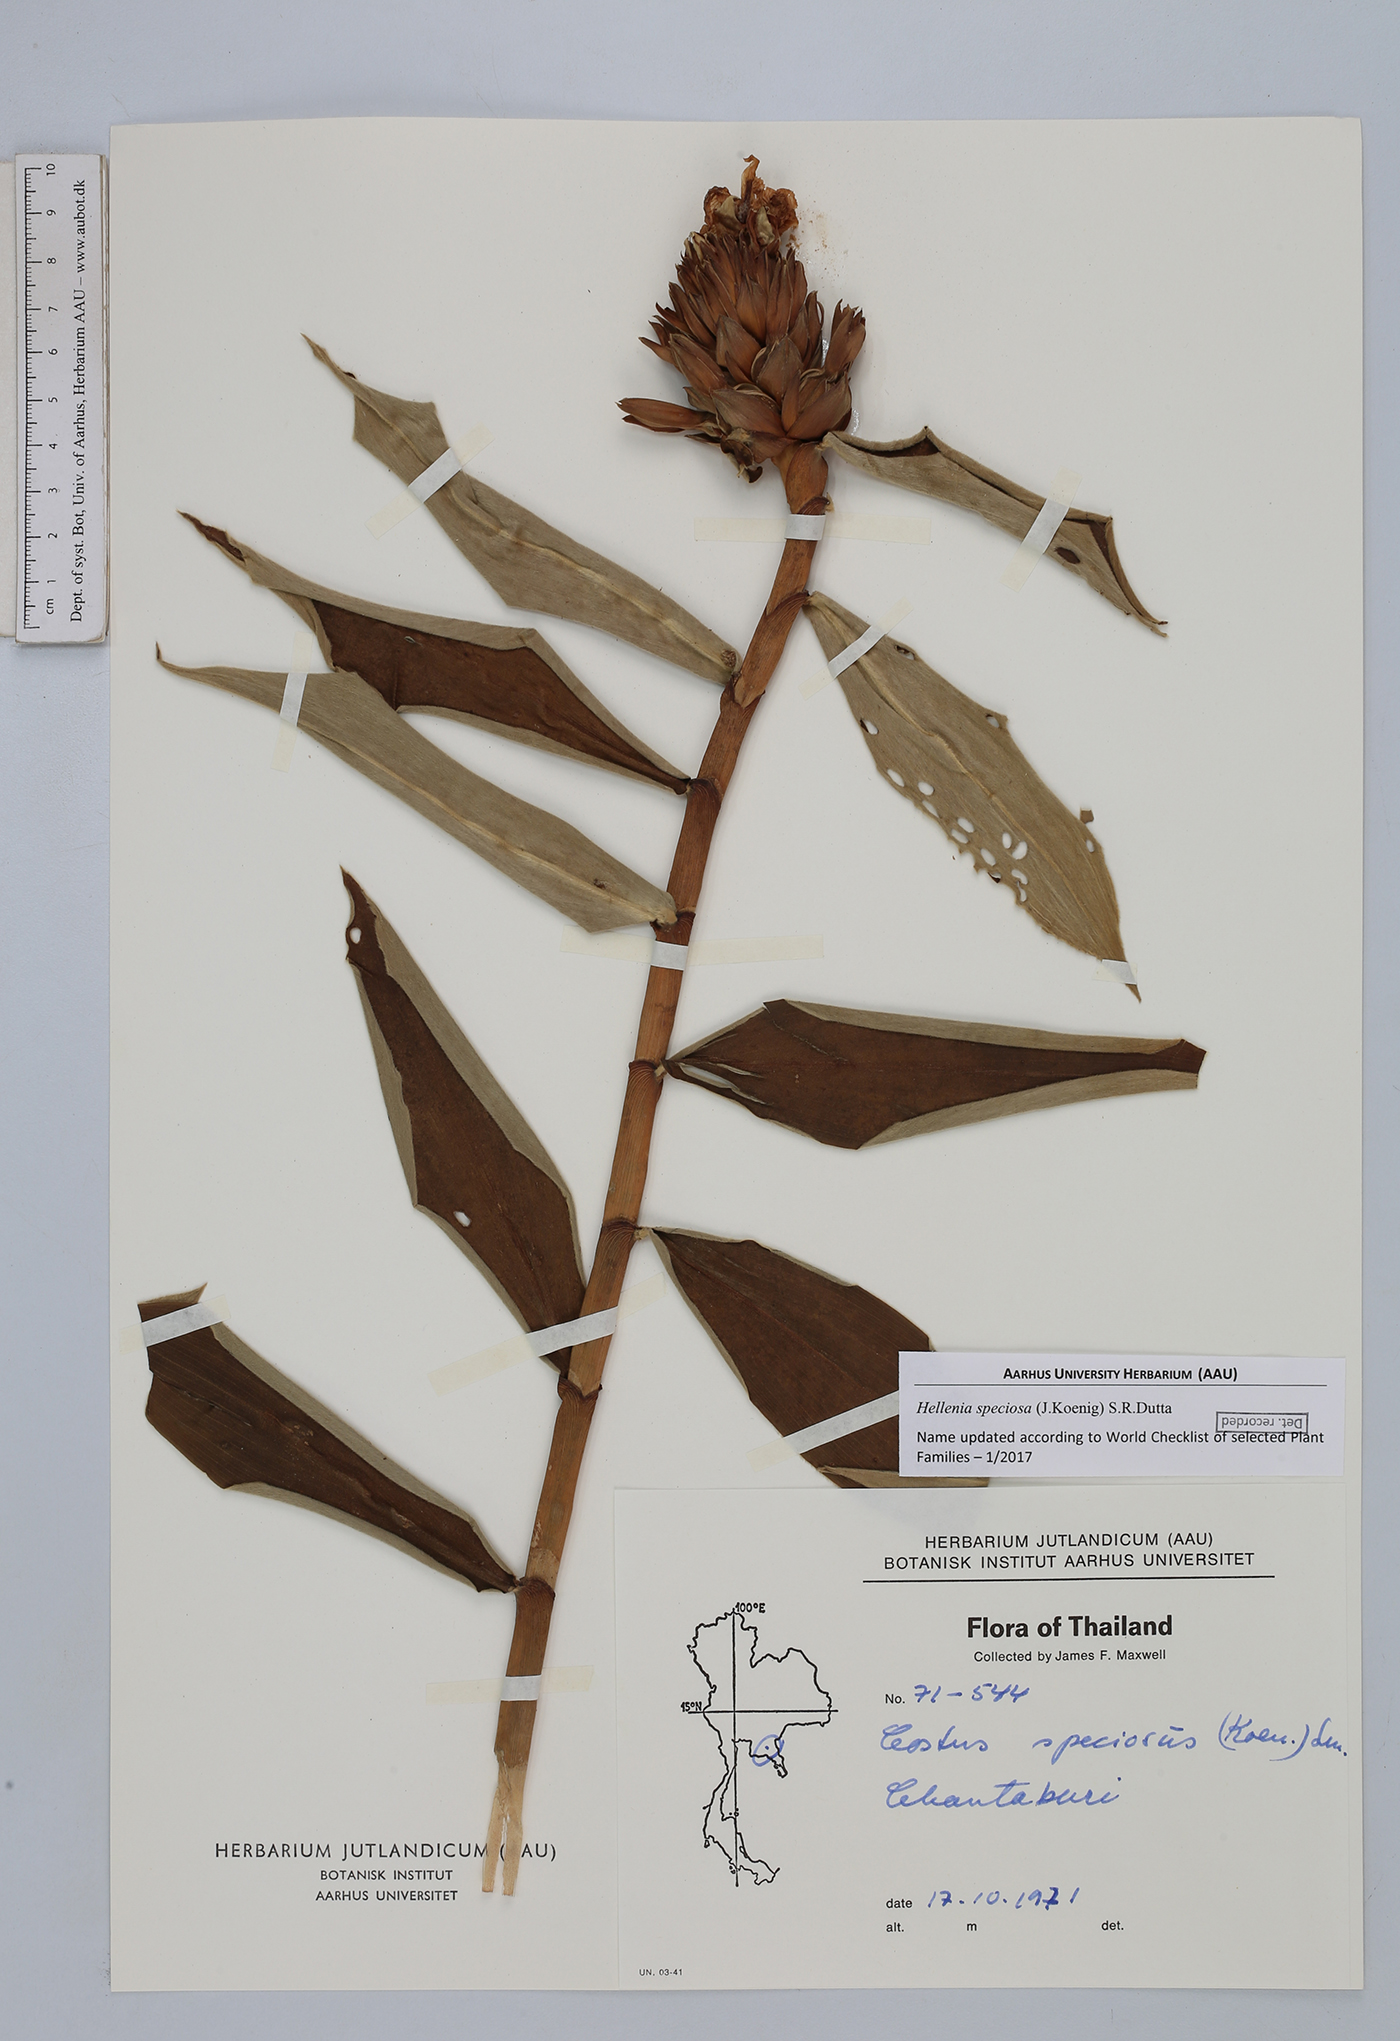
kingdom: Plantae
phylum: Tracheophyta
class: Liliopsida
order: Zingiberales
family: Costaceae
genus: Hellenia
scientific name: Hellenia speciosa
